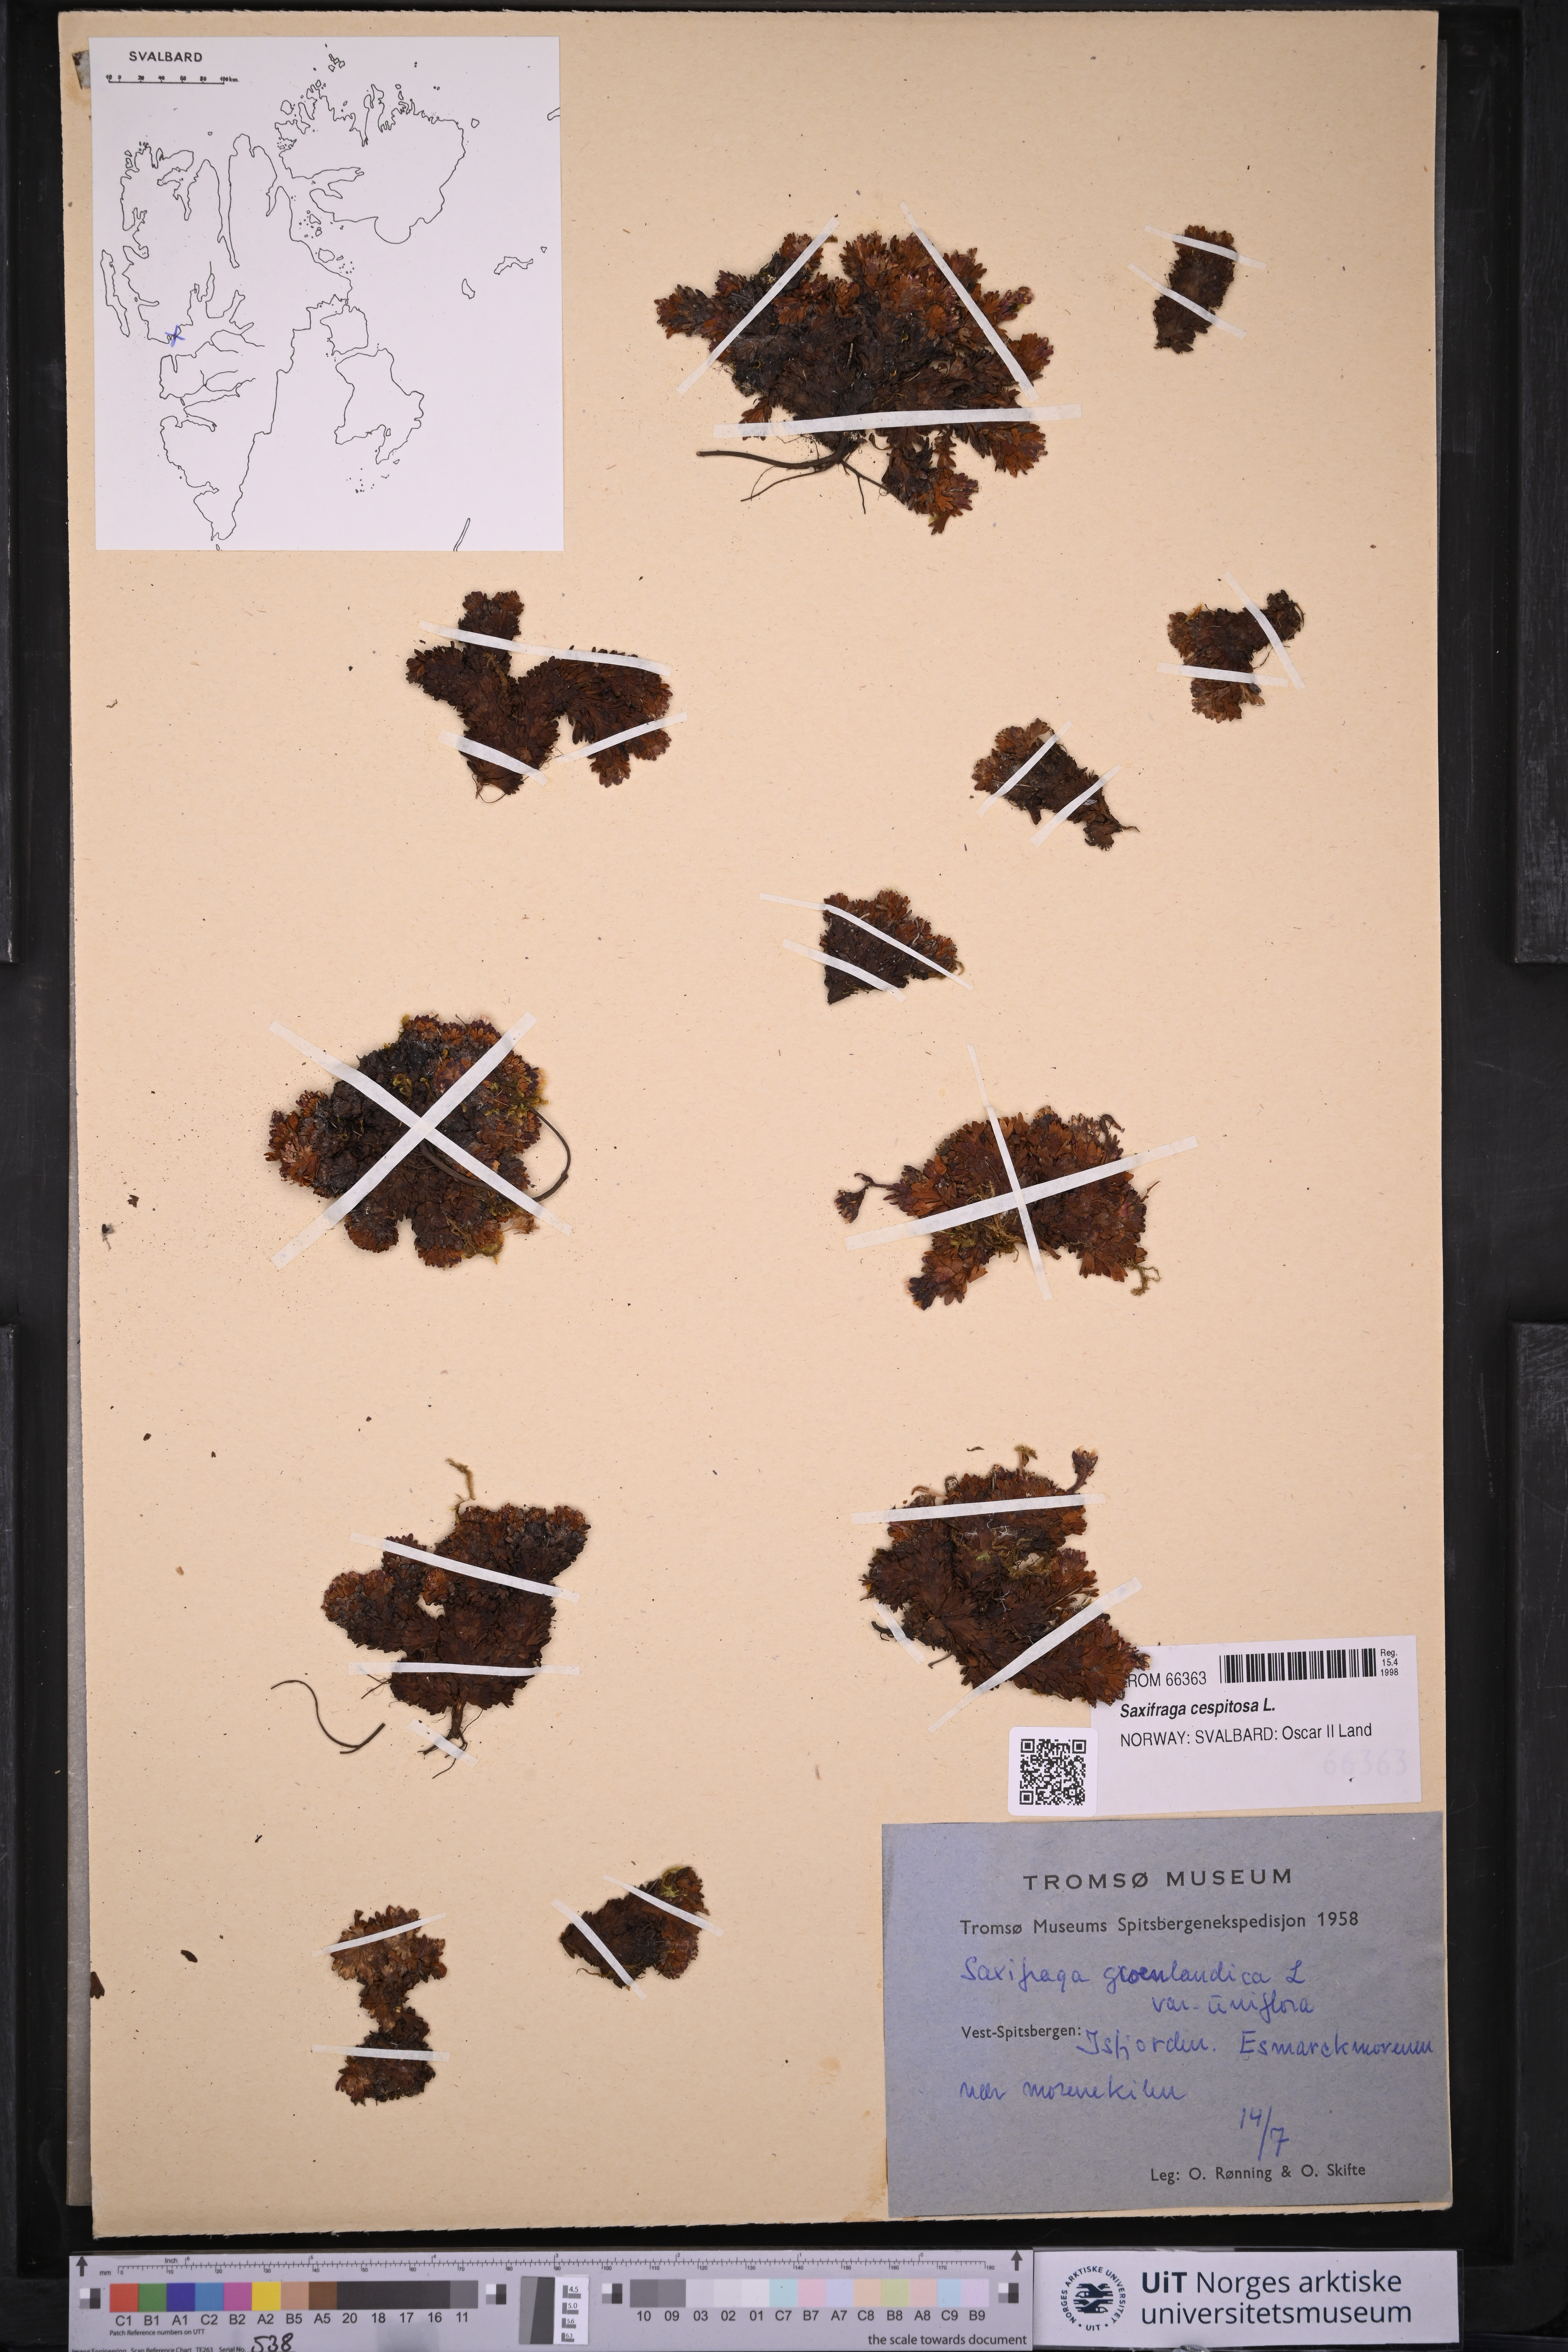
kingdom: Plantae
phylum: Tracheophyta
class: Magnoliopsida
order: Saxifragales
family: Saxifragaceae
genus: Saxifraga
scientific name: Saxifraga cespitosa
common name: Tufted saxifrage
